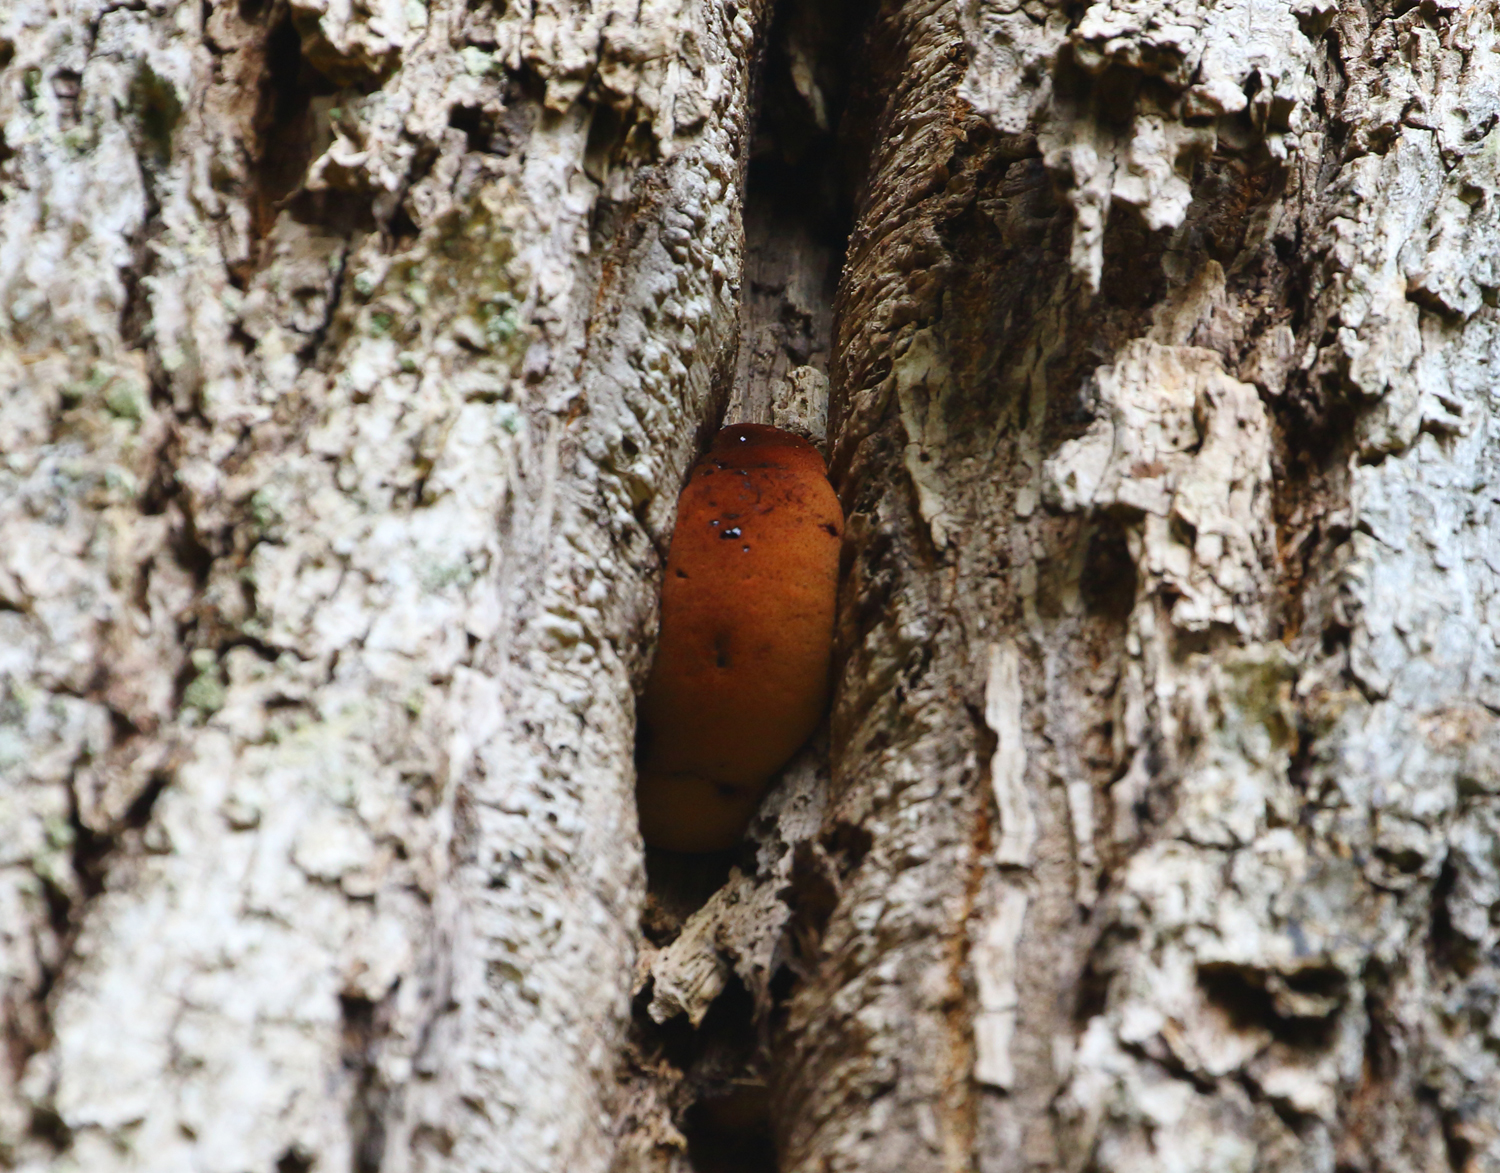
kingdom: Fungi
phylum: Basidiomycota
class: Agaricomycetes
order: Agaricales
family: Fistulinaceae
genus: Fistulina
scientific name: Fistulina hepatica
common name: oksetunge
